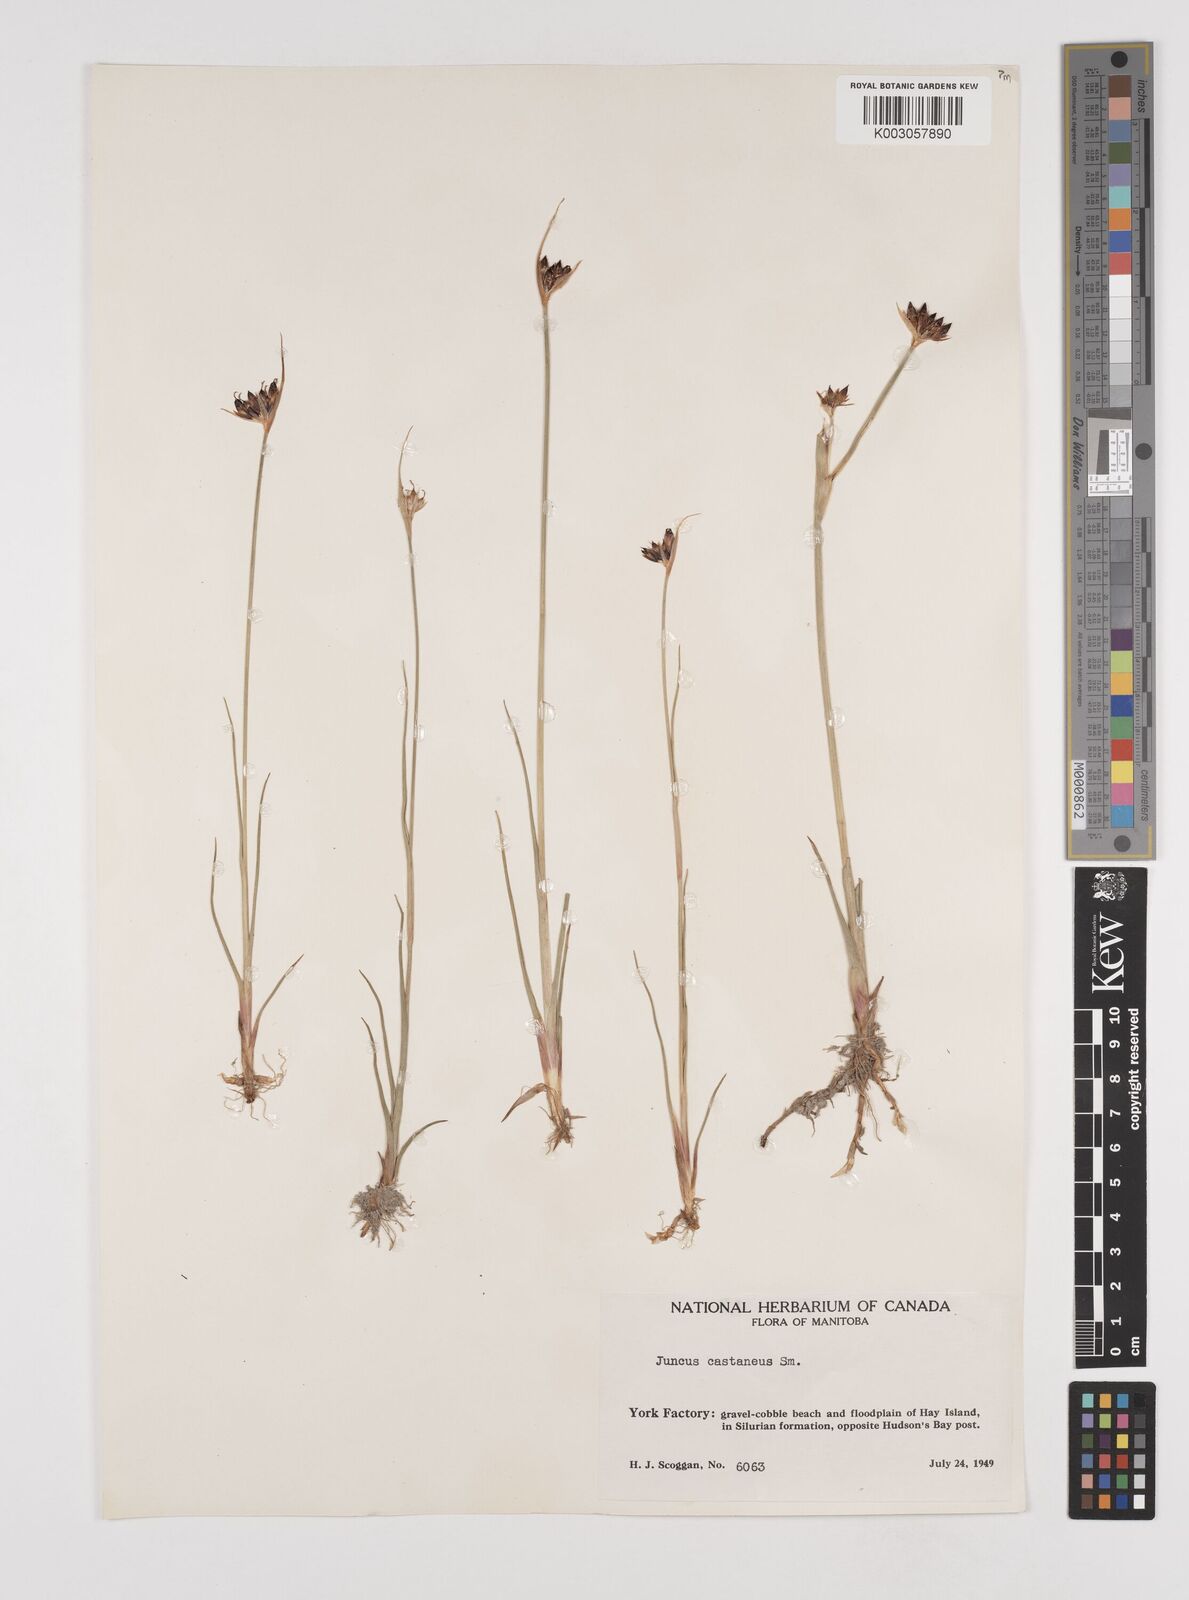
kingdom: Plantae
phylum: Tracheophyta
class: Liliopsida
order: Poales
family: Juncaceae
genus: Juncus
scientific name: Juncus castaneus
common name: Chestnut rush
